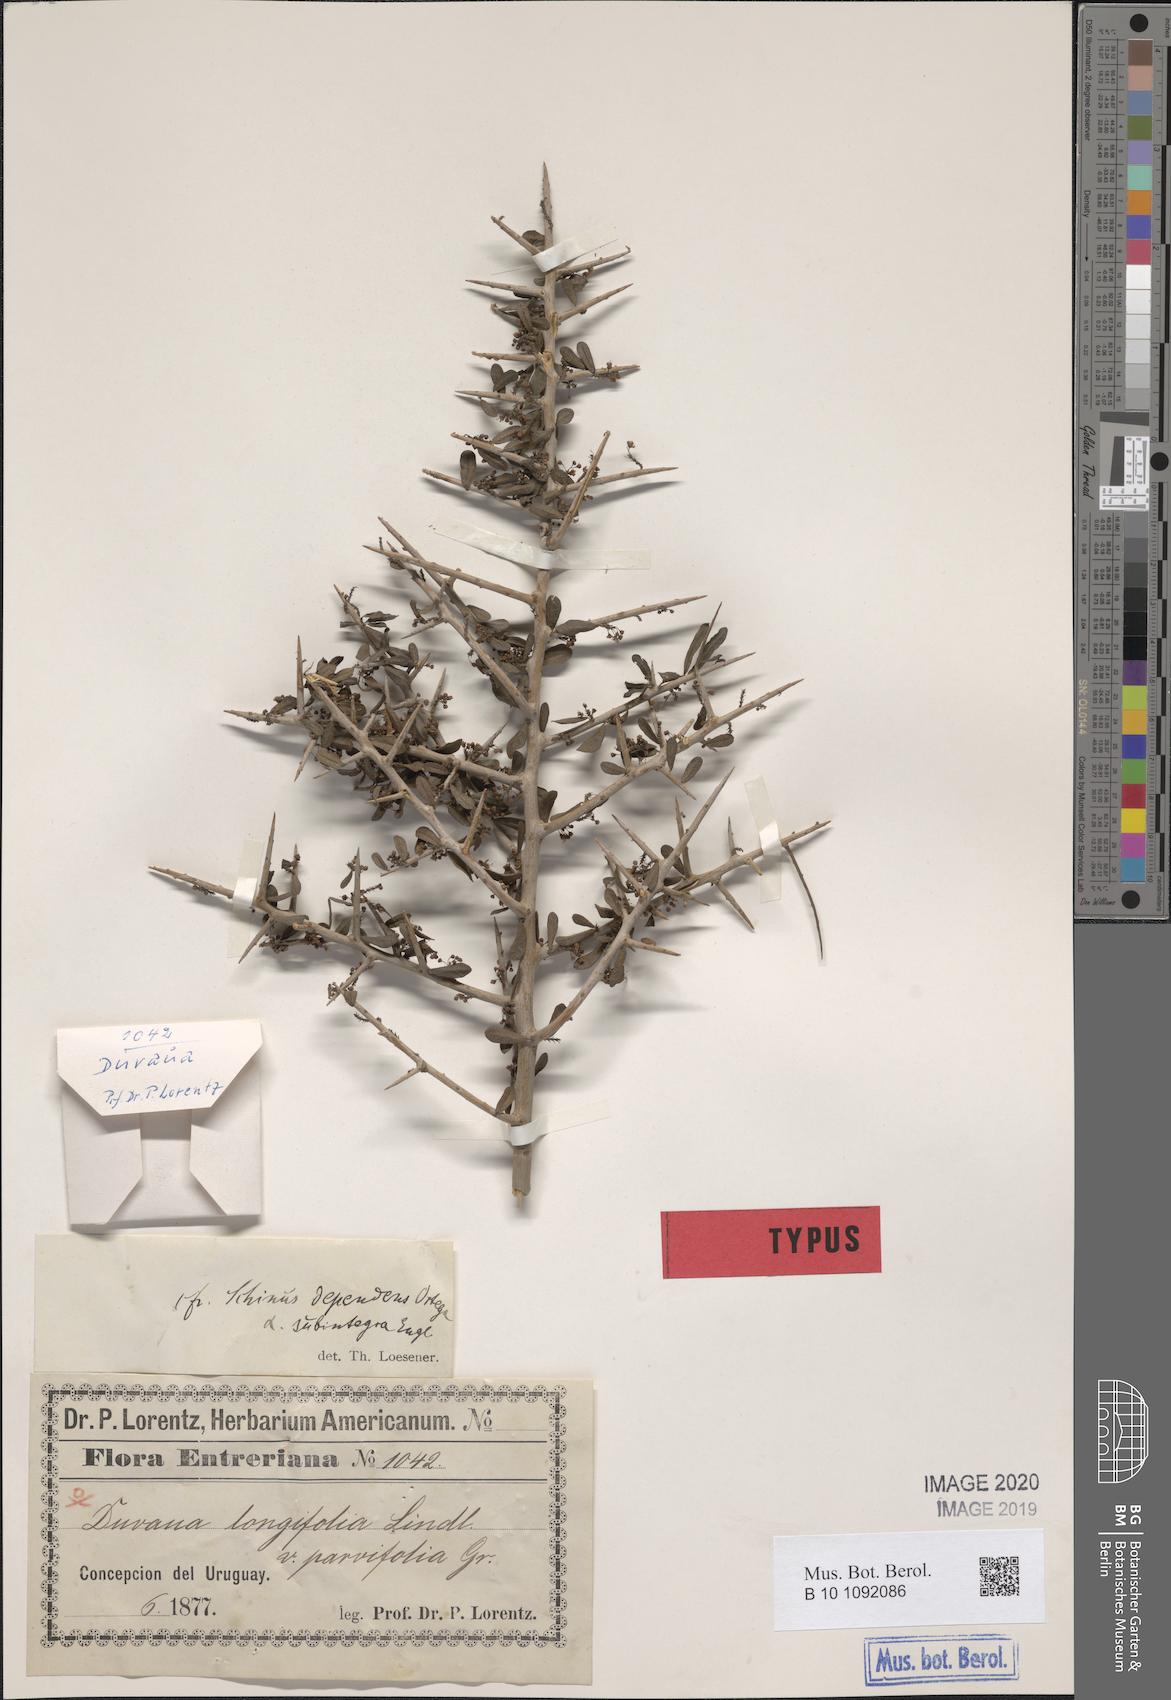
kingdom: Plantae
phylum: Tracheophyta
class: Magnoliopsida
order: Sapindales
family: Anacardiaceae
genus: Schinus
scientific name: Schinus fasciculata
